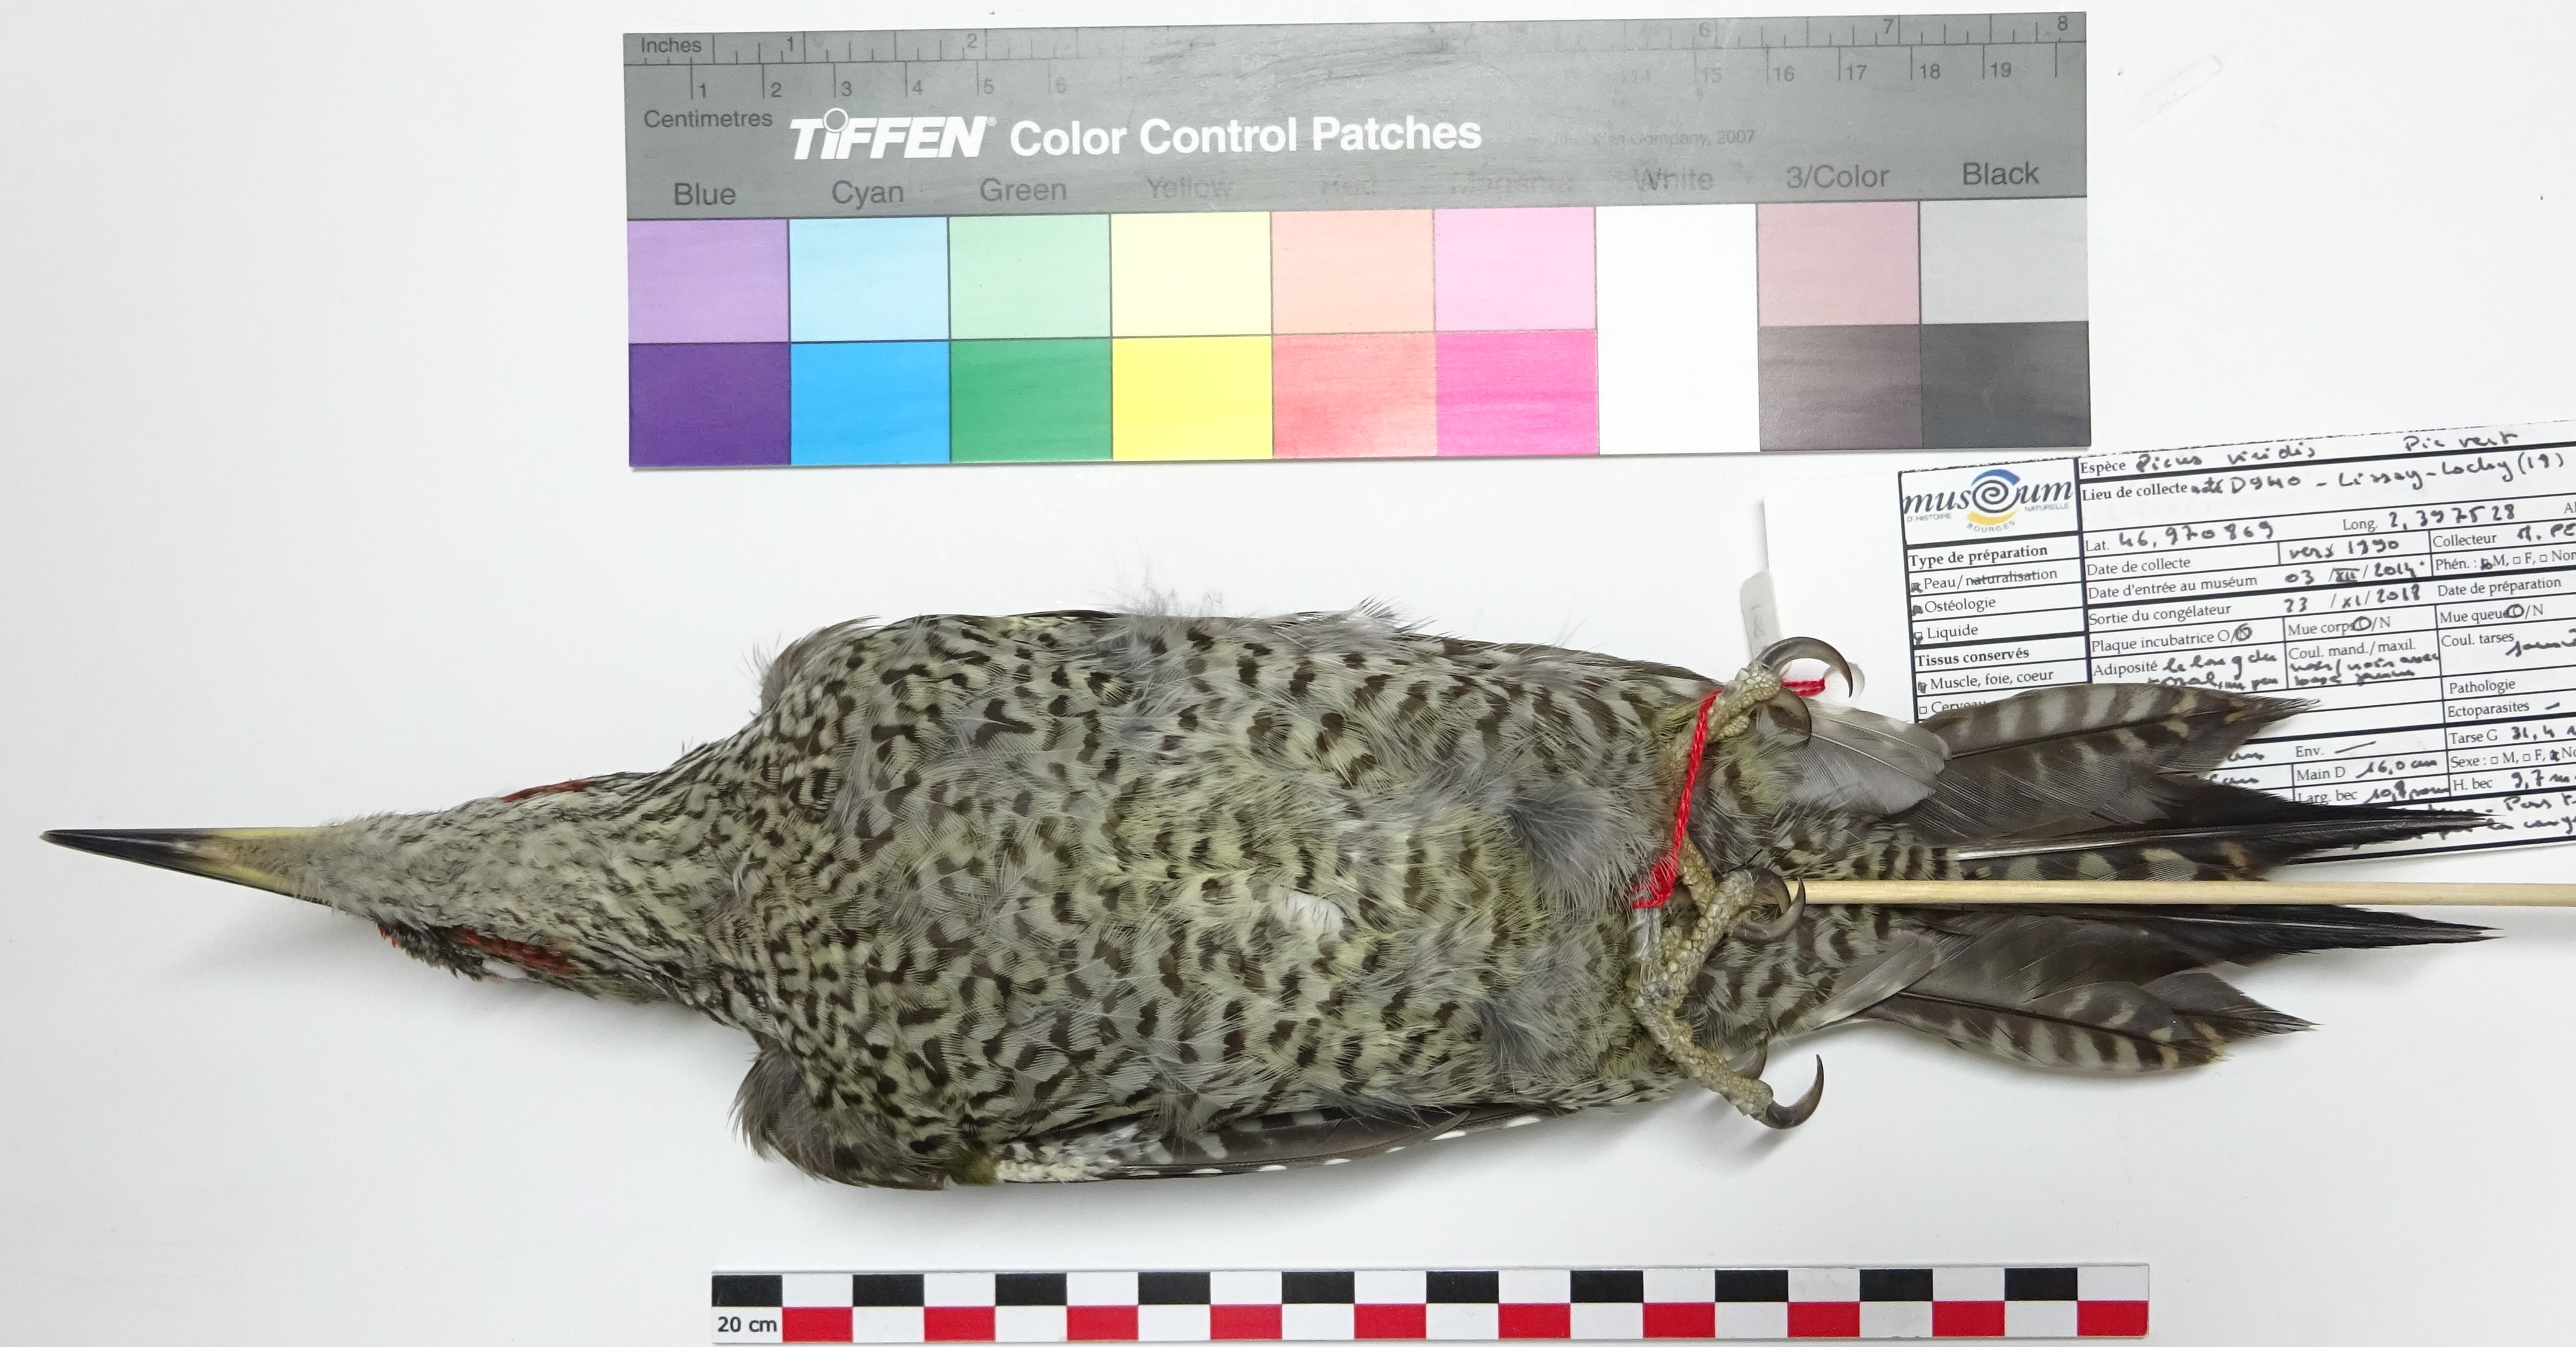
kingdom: Animalia
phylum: Chordata
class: Aves
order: Piciformes
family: Picidae
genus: Picus
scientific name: Picus viridis
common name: European green woodpecker
